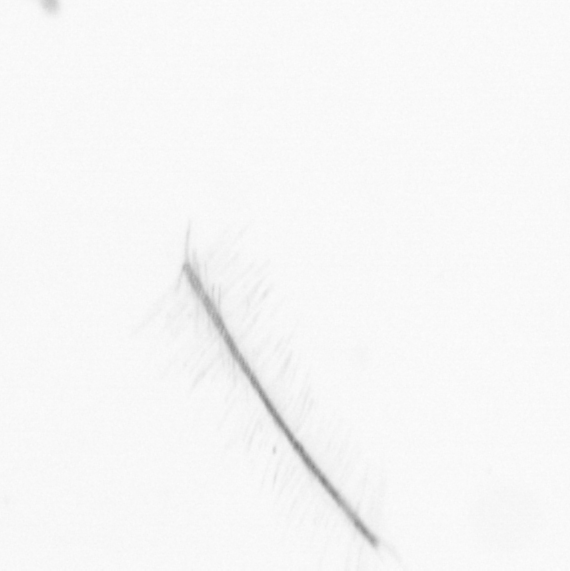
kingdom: Chromista
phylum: Ochrophyta
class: Bacillariophyceae
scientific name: Bacillariophyceae
